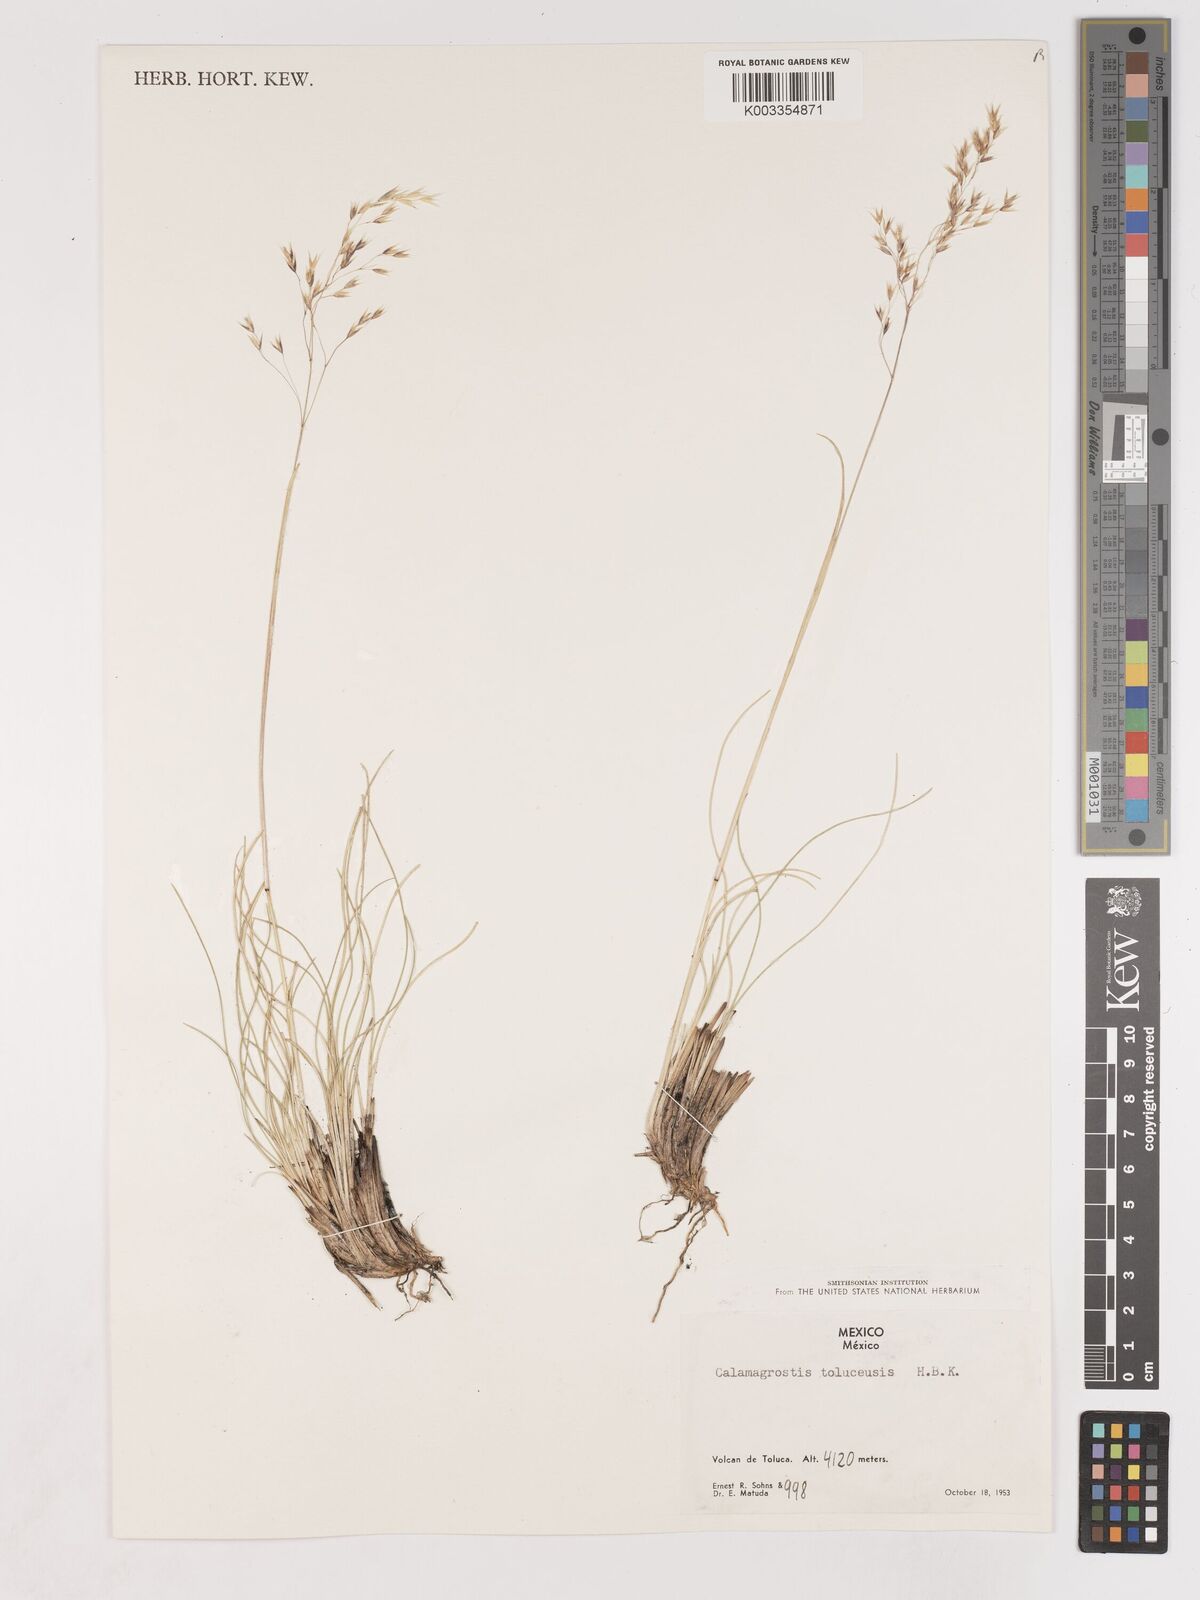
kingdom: Plantae
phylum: Tracheophyta
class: Liliopsida
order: Poales
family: Poaceae
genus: Peyritschia
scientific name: Peyritschia tolucensis
